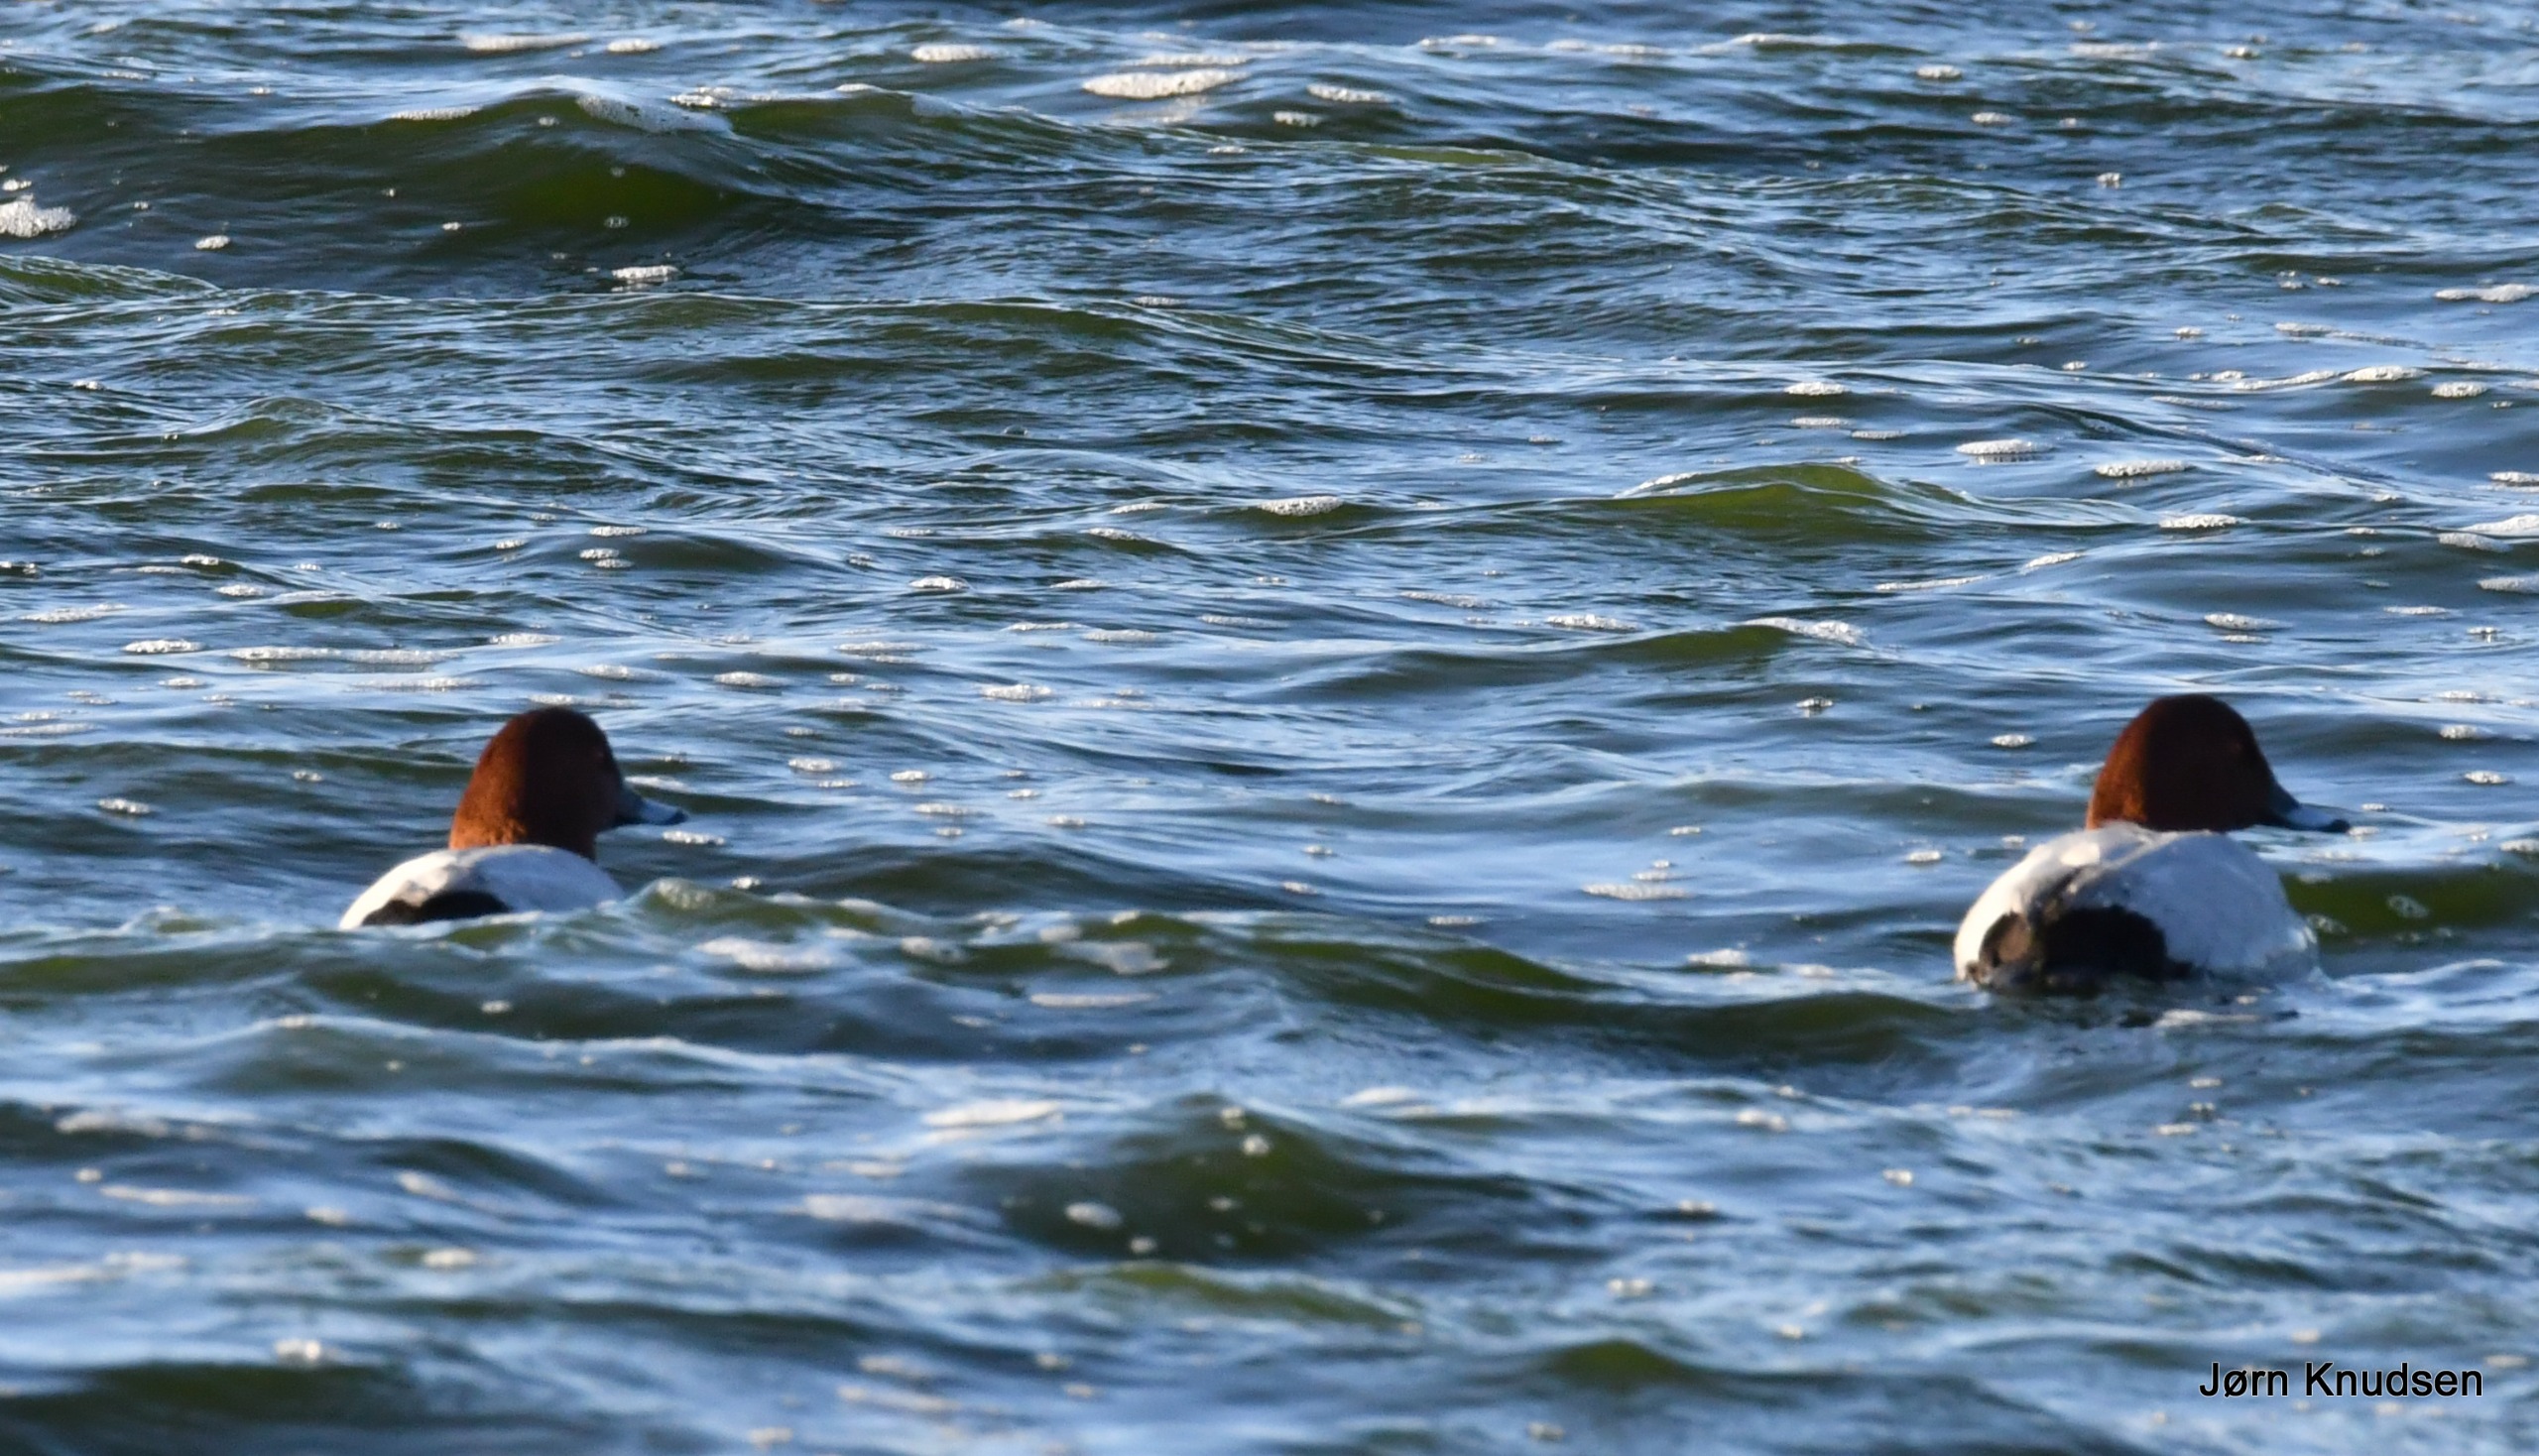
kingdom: Animalia
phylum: Chordata
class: Aves
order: Anseriformes
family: Anatidae
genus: Aythya
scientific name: Aythya ferina
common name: Taffeland
